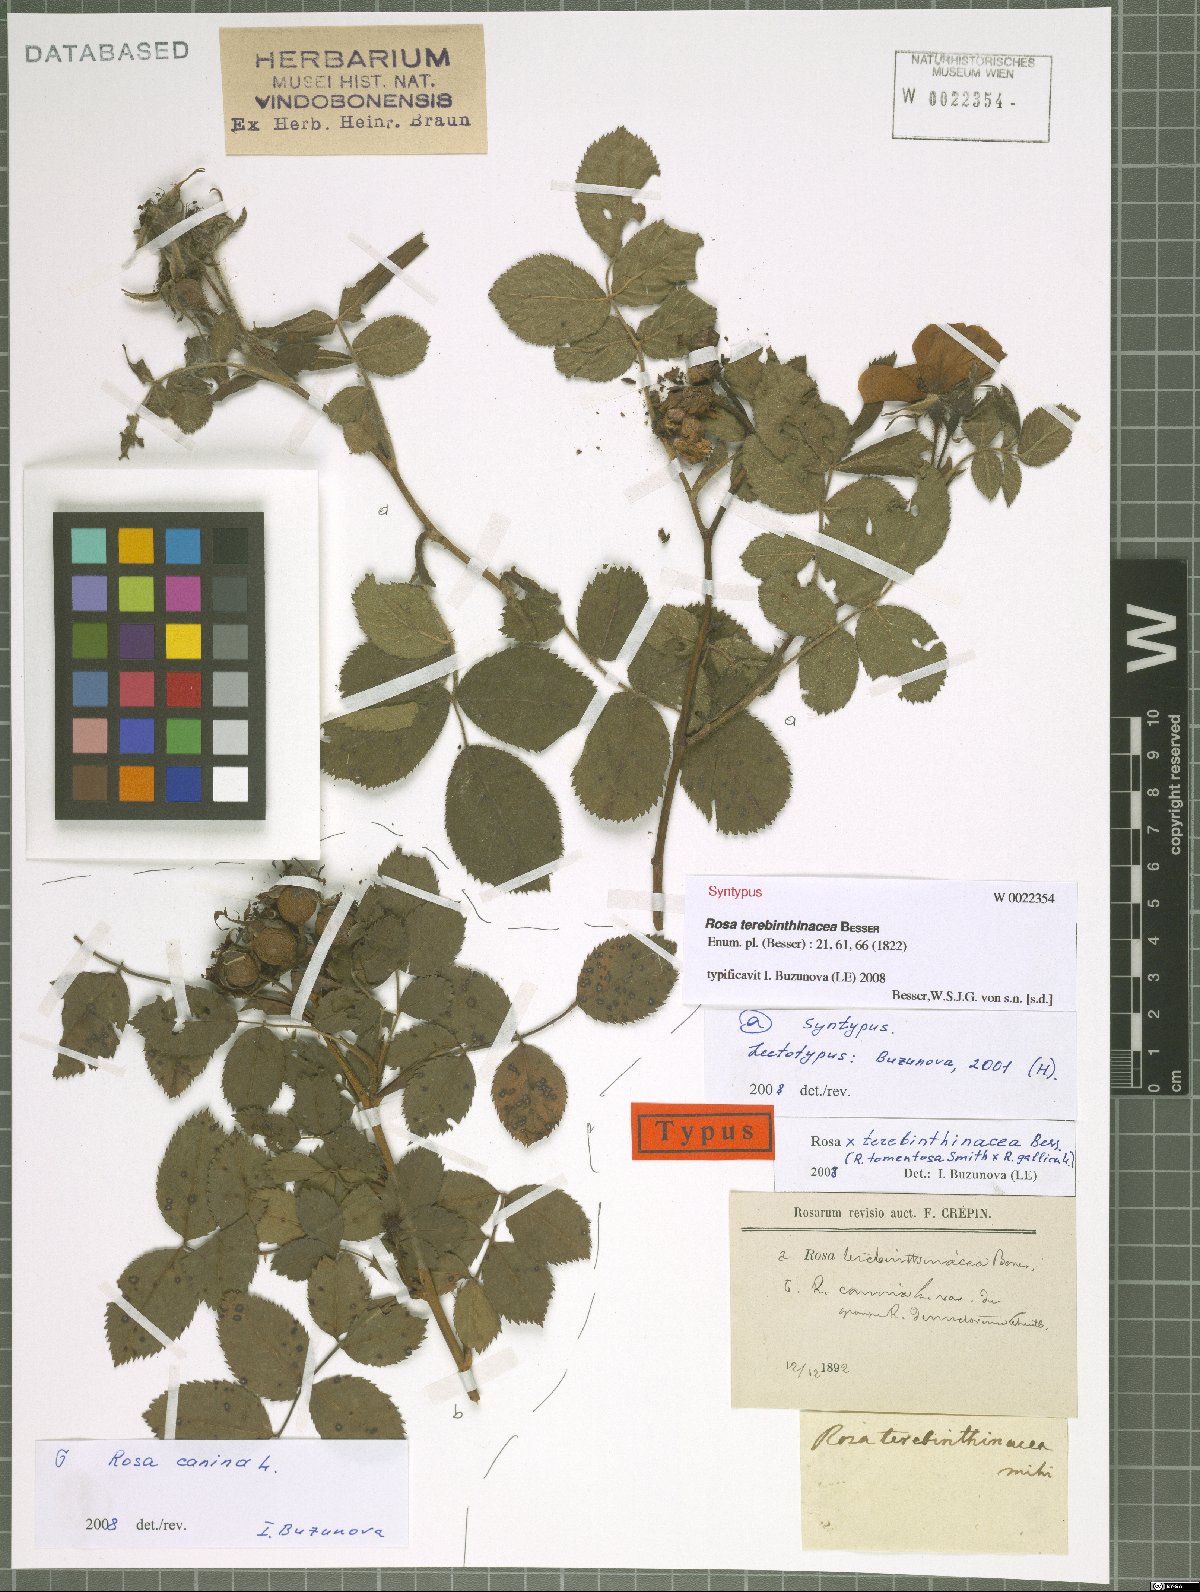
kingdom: Plantae
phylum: Tracheophyta
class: Magnoliopsida
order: Rosales
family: Rosaceae
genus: Rosa
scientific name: Rosa tomentosa
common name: Downy rose
